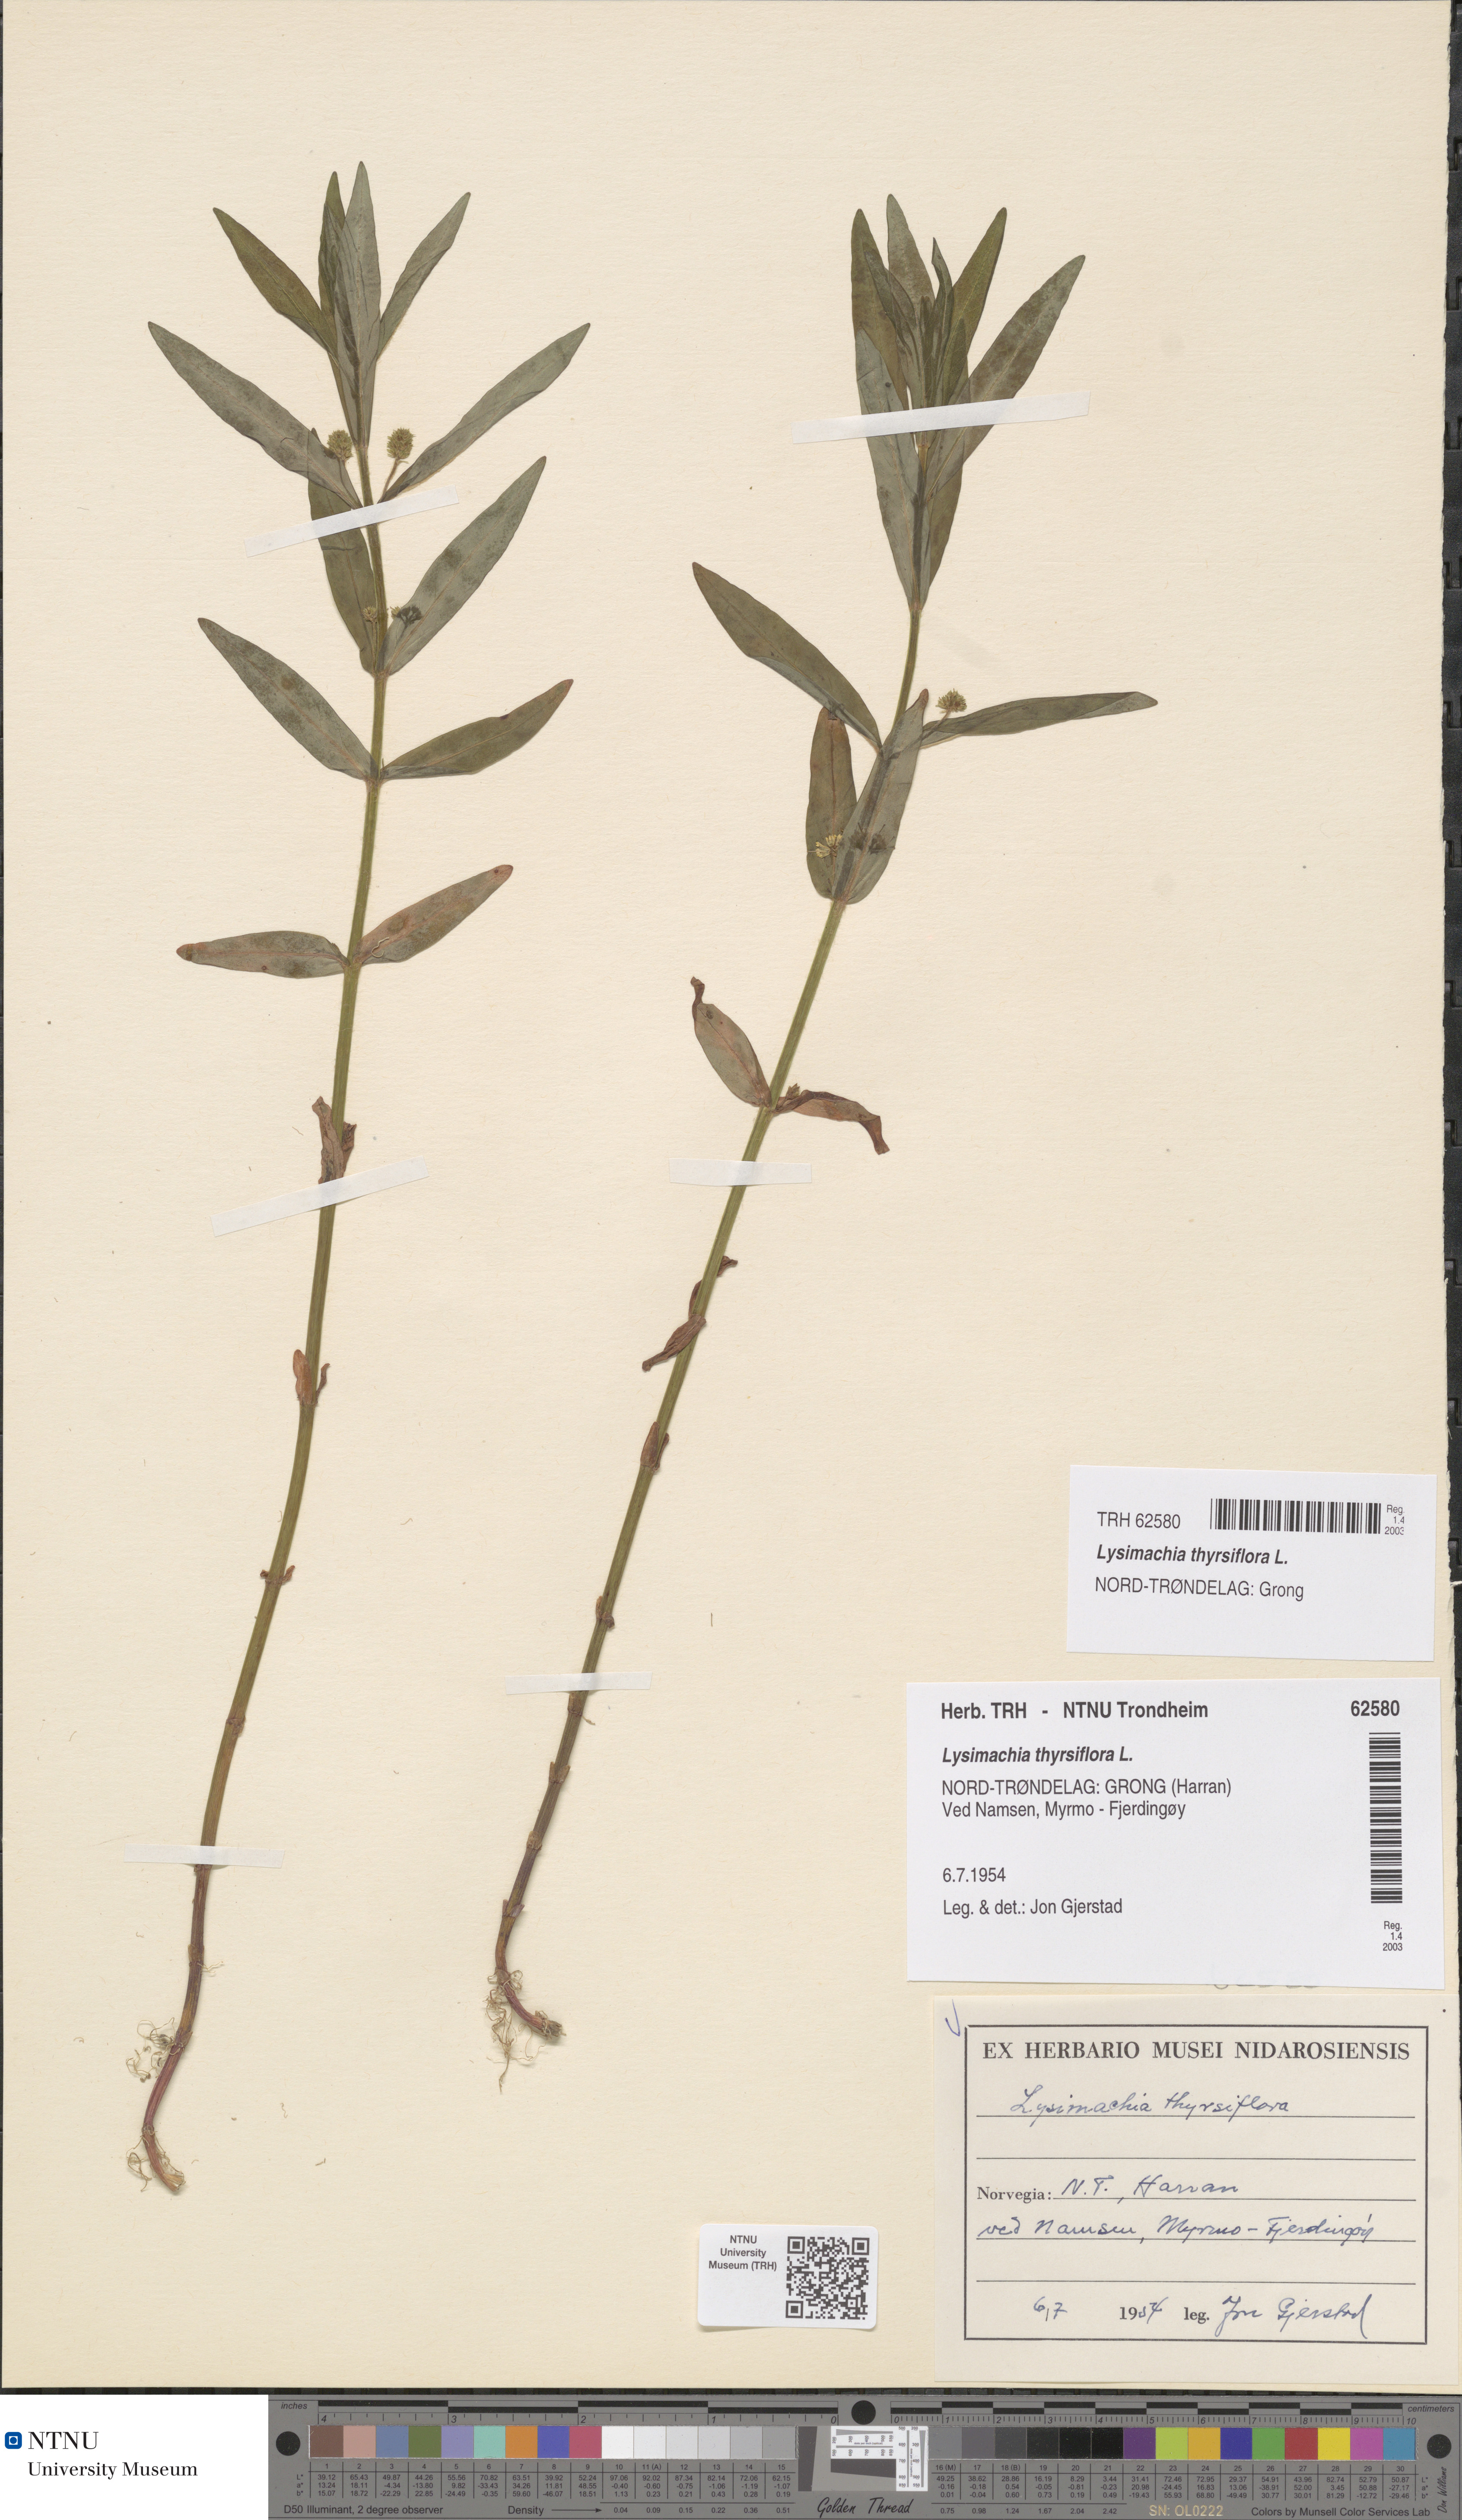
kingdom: Plantae
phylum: Tracheophyta
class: Magnoliopsida
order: Ericales
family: Primulaceae
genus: Lysimachia
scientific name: Lysimachia thyrsiflora
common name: Tufted loosestrife
